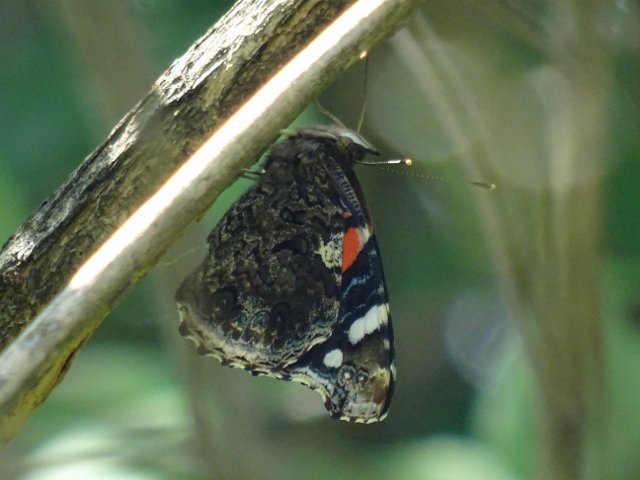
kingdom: Animalia
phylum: Arthropoda
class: Insecta
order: Lepidoptera
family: Nymphalidae
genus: Vanessa
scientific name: Vanessa atalanta
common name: Red Admiral
